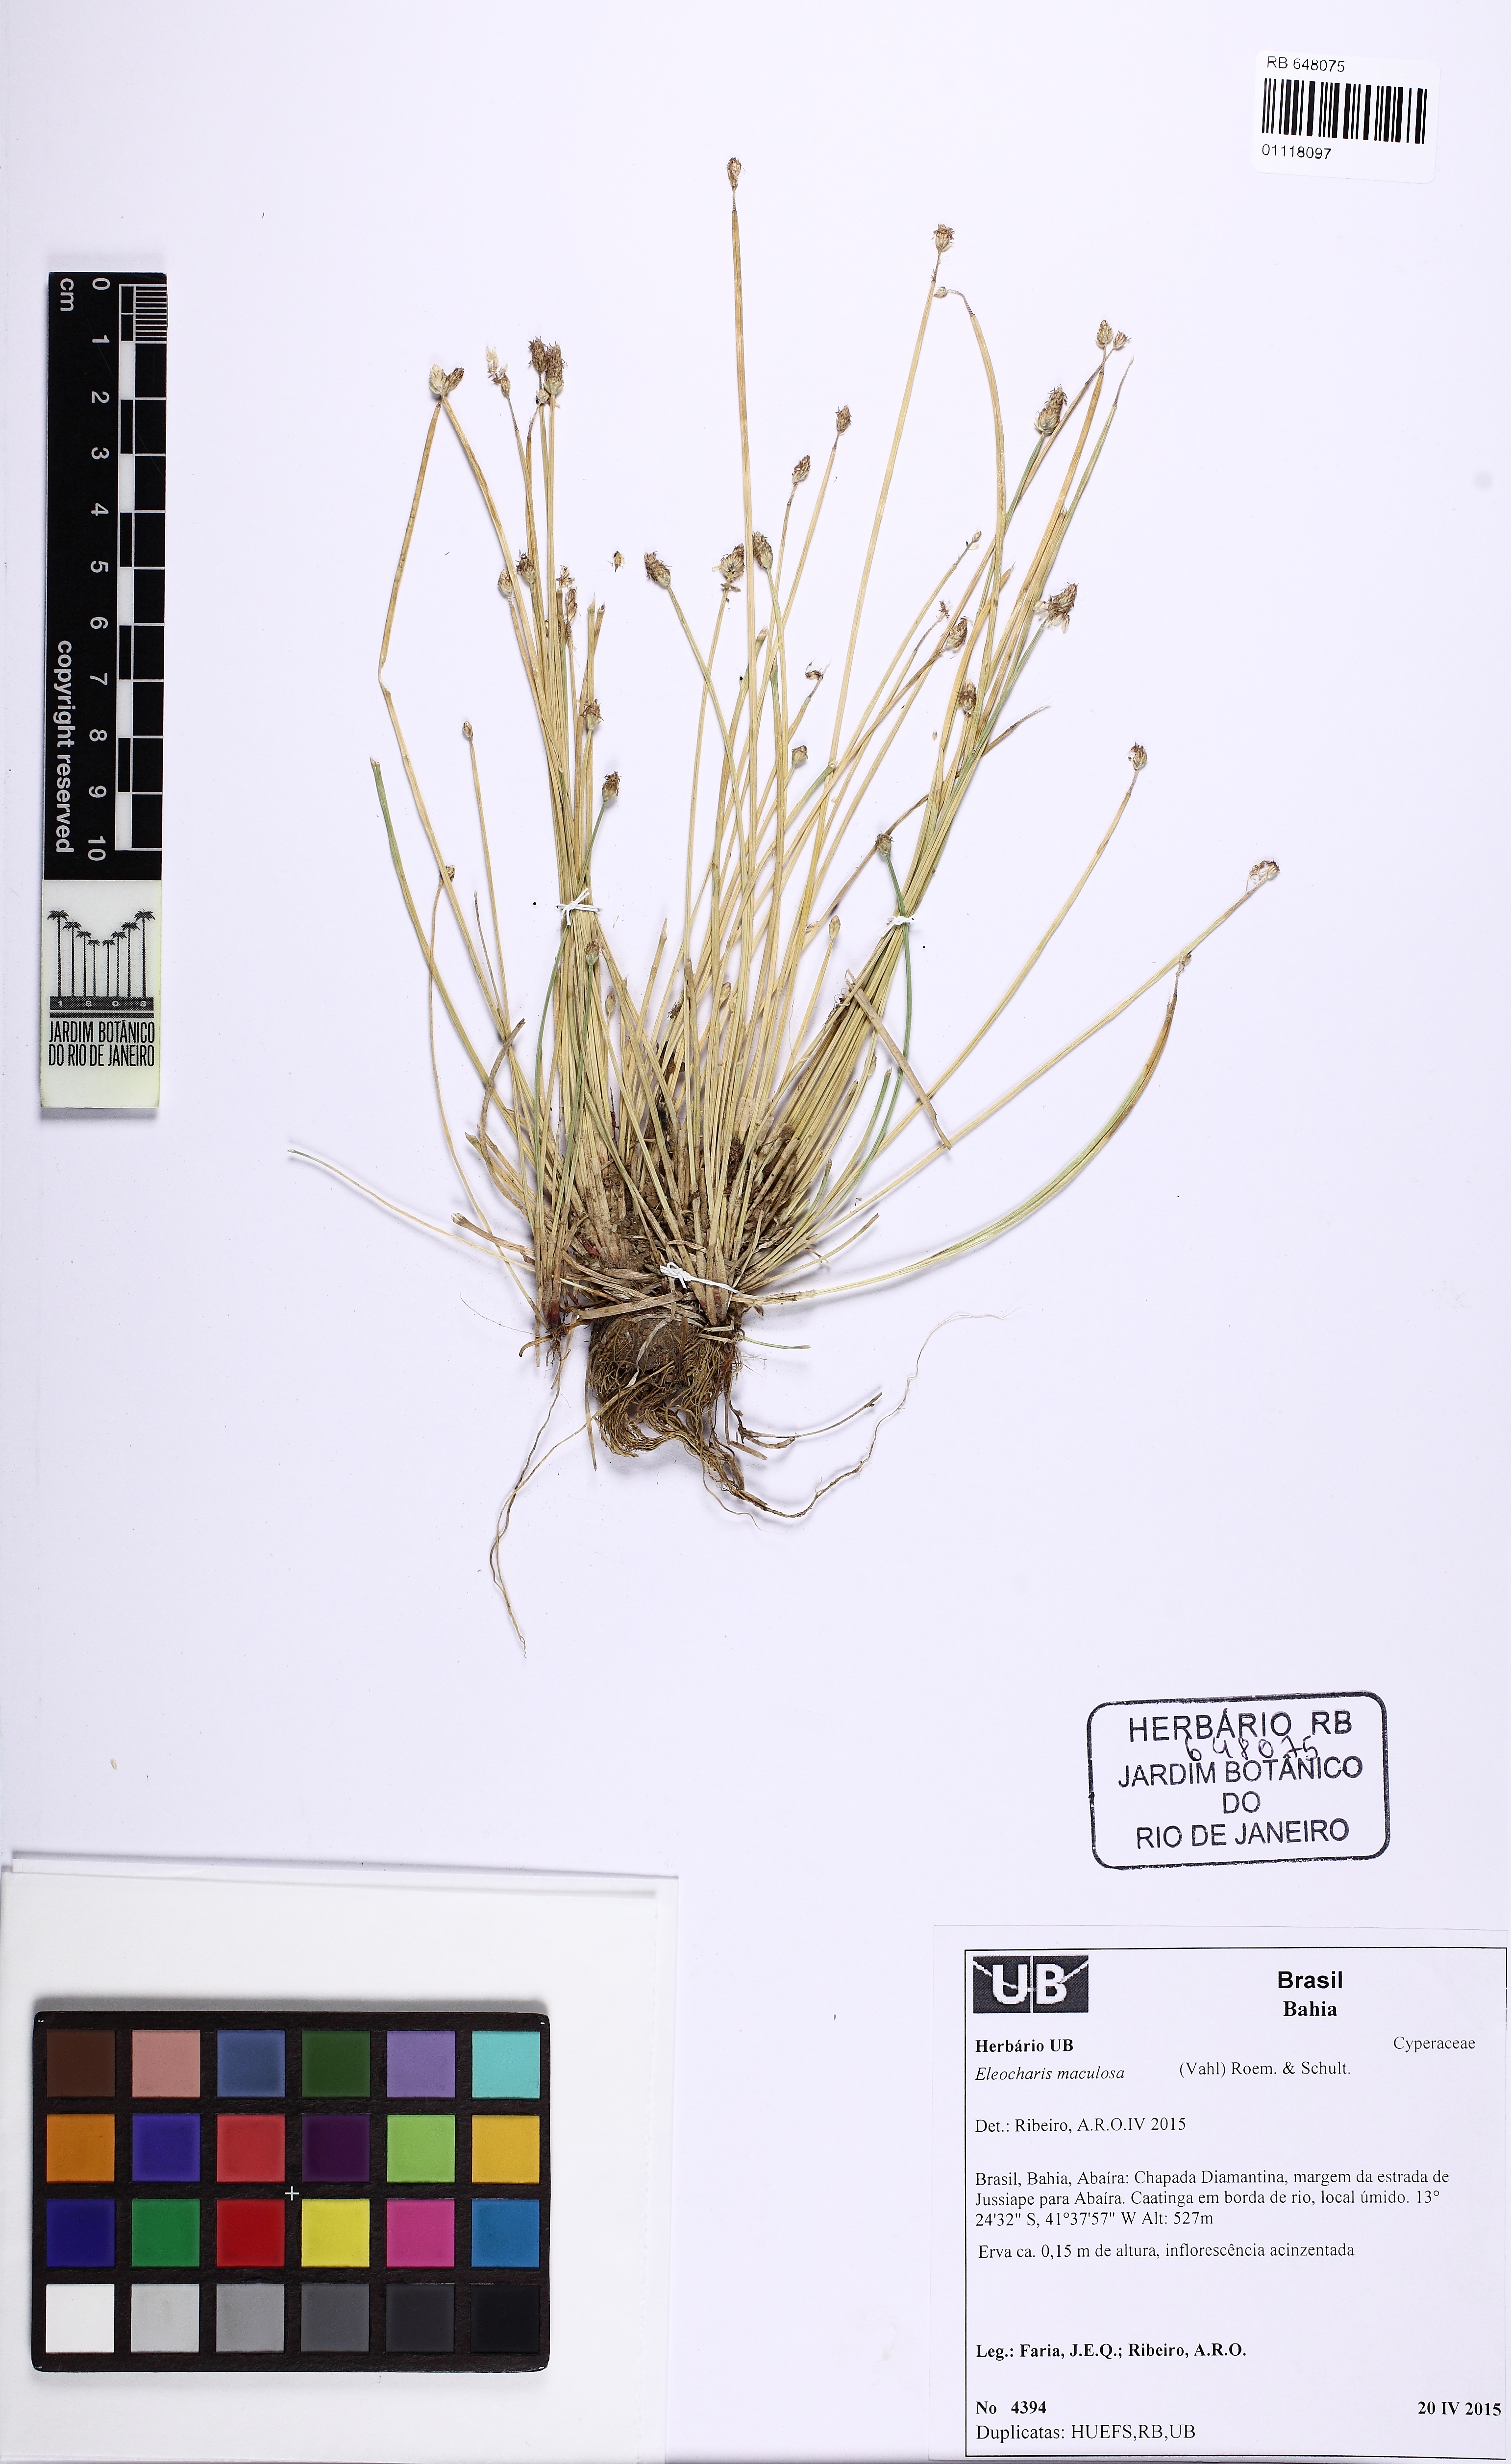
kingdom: Plantae
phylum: Tracheophyta
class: Liliopsida
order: Poales
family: Cyperaceae
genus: Eleocharis
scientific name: Eleocharis maculosa
